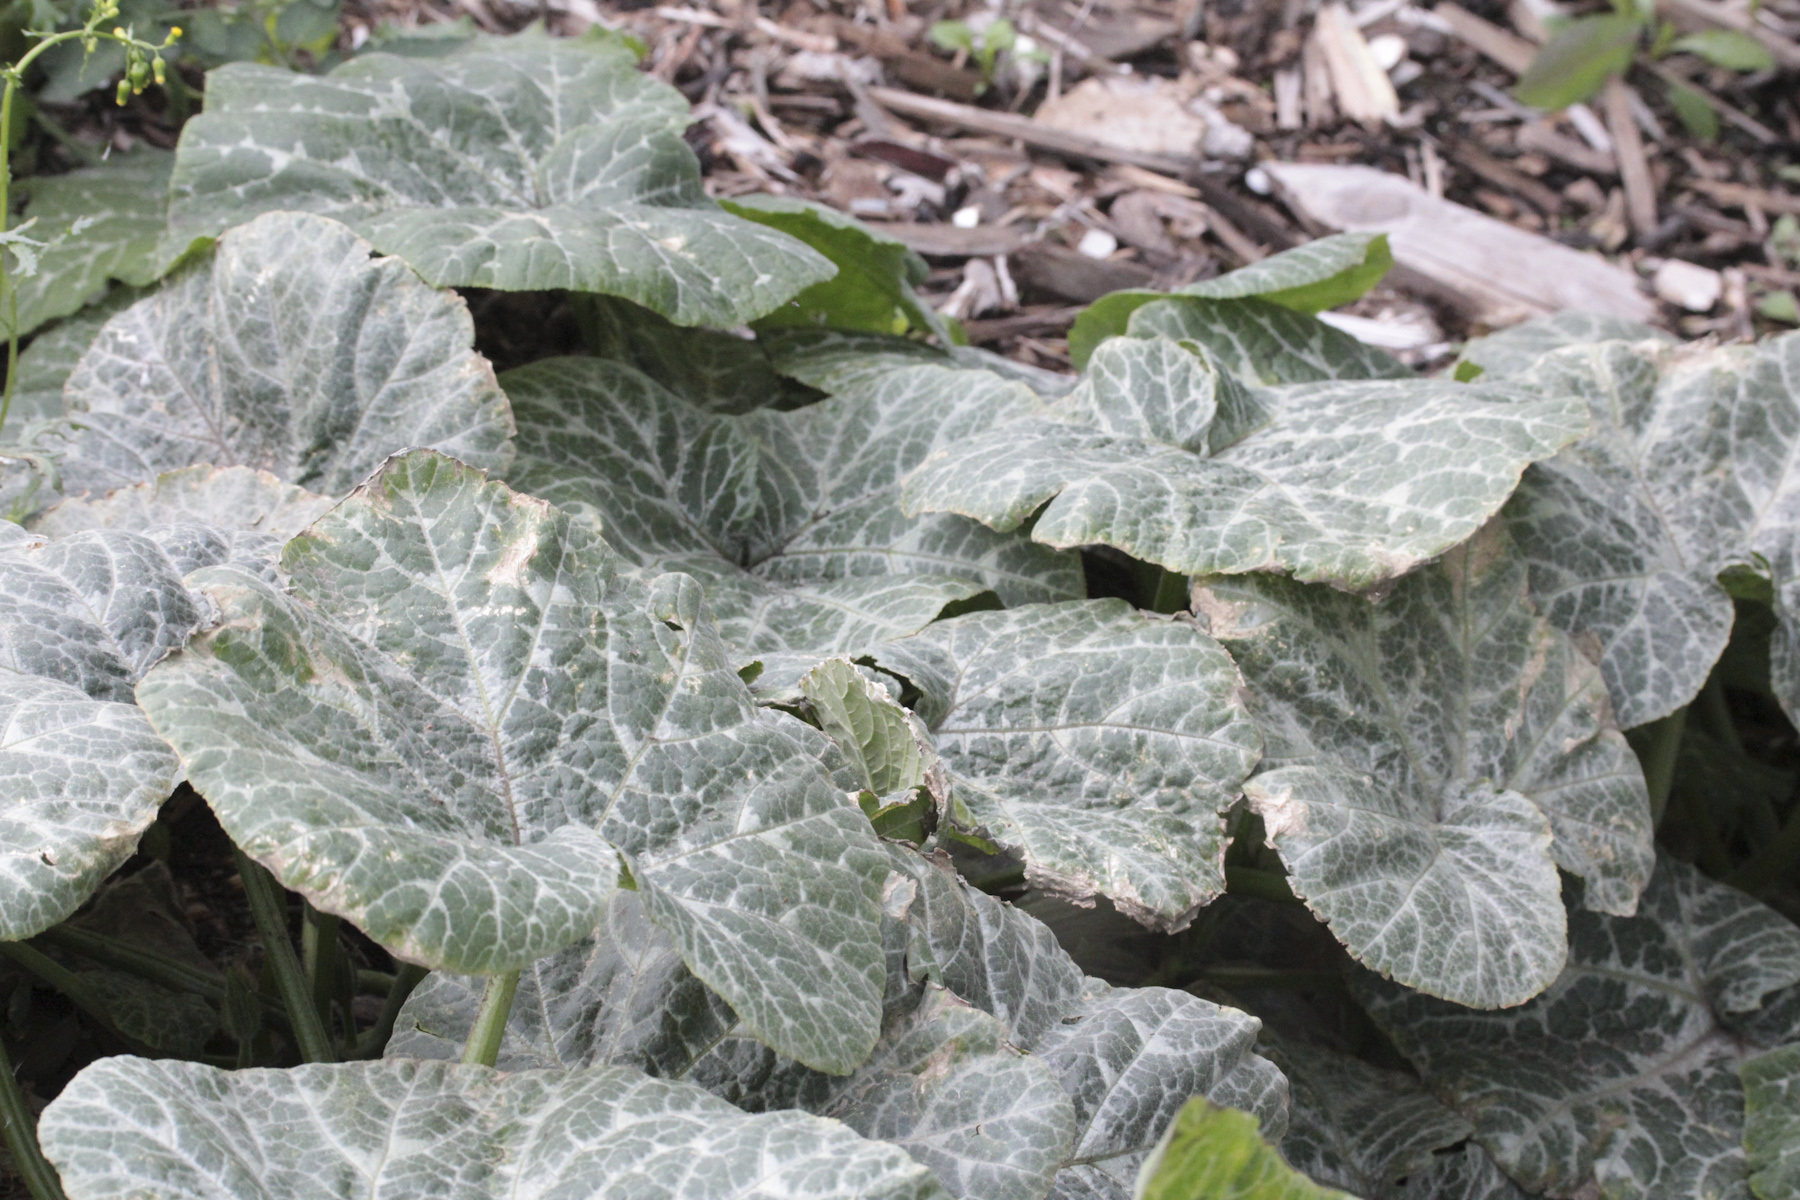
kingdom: Plantae
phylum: Tracheophyta
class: Magnoliopsida
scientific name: Magnoliopsida
